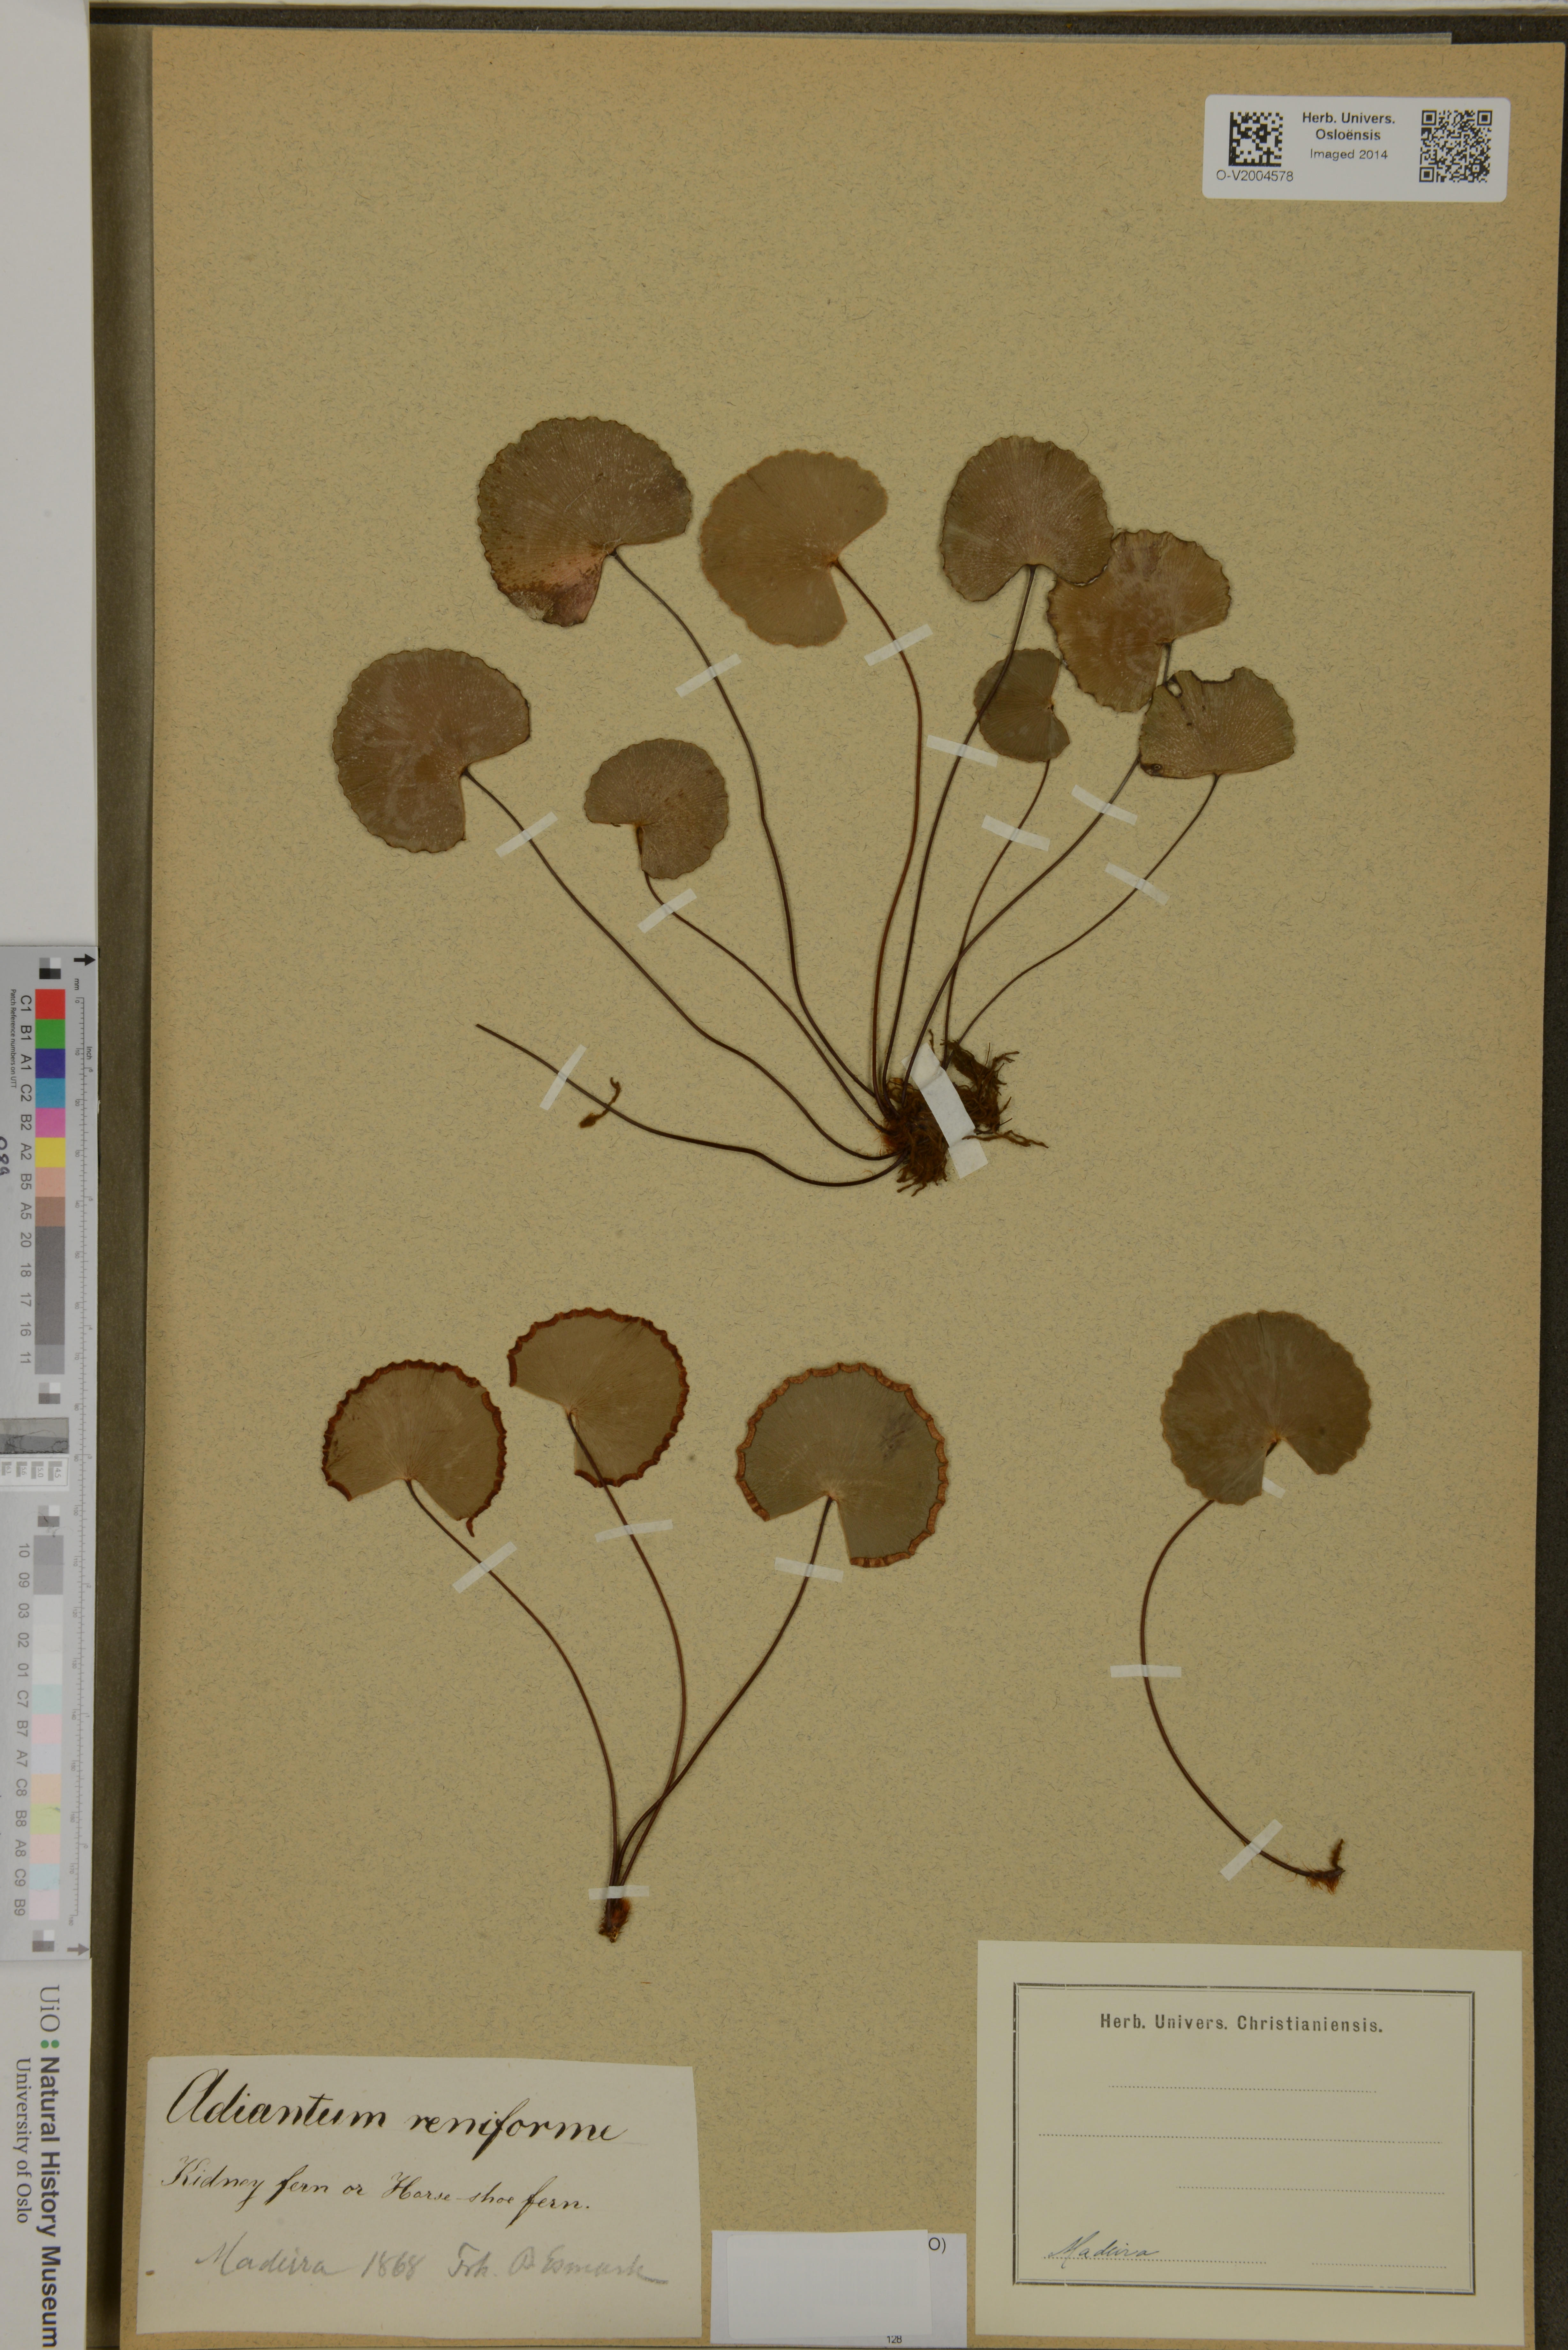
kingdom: Plantae
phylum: Tracheophyta
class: Polypodiopsida
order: Polypodiales
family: Pteridaceae
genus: Adiantum
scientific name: Adiantum reniforme
